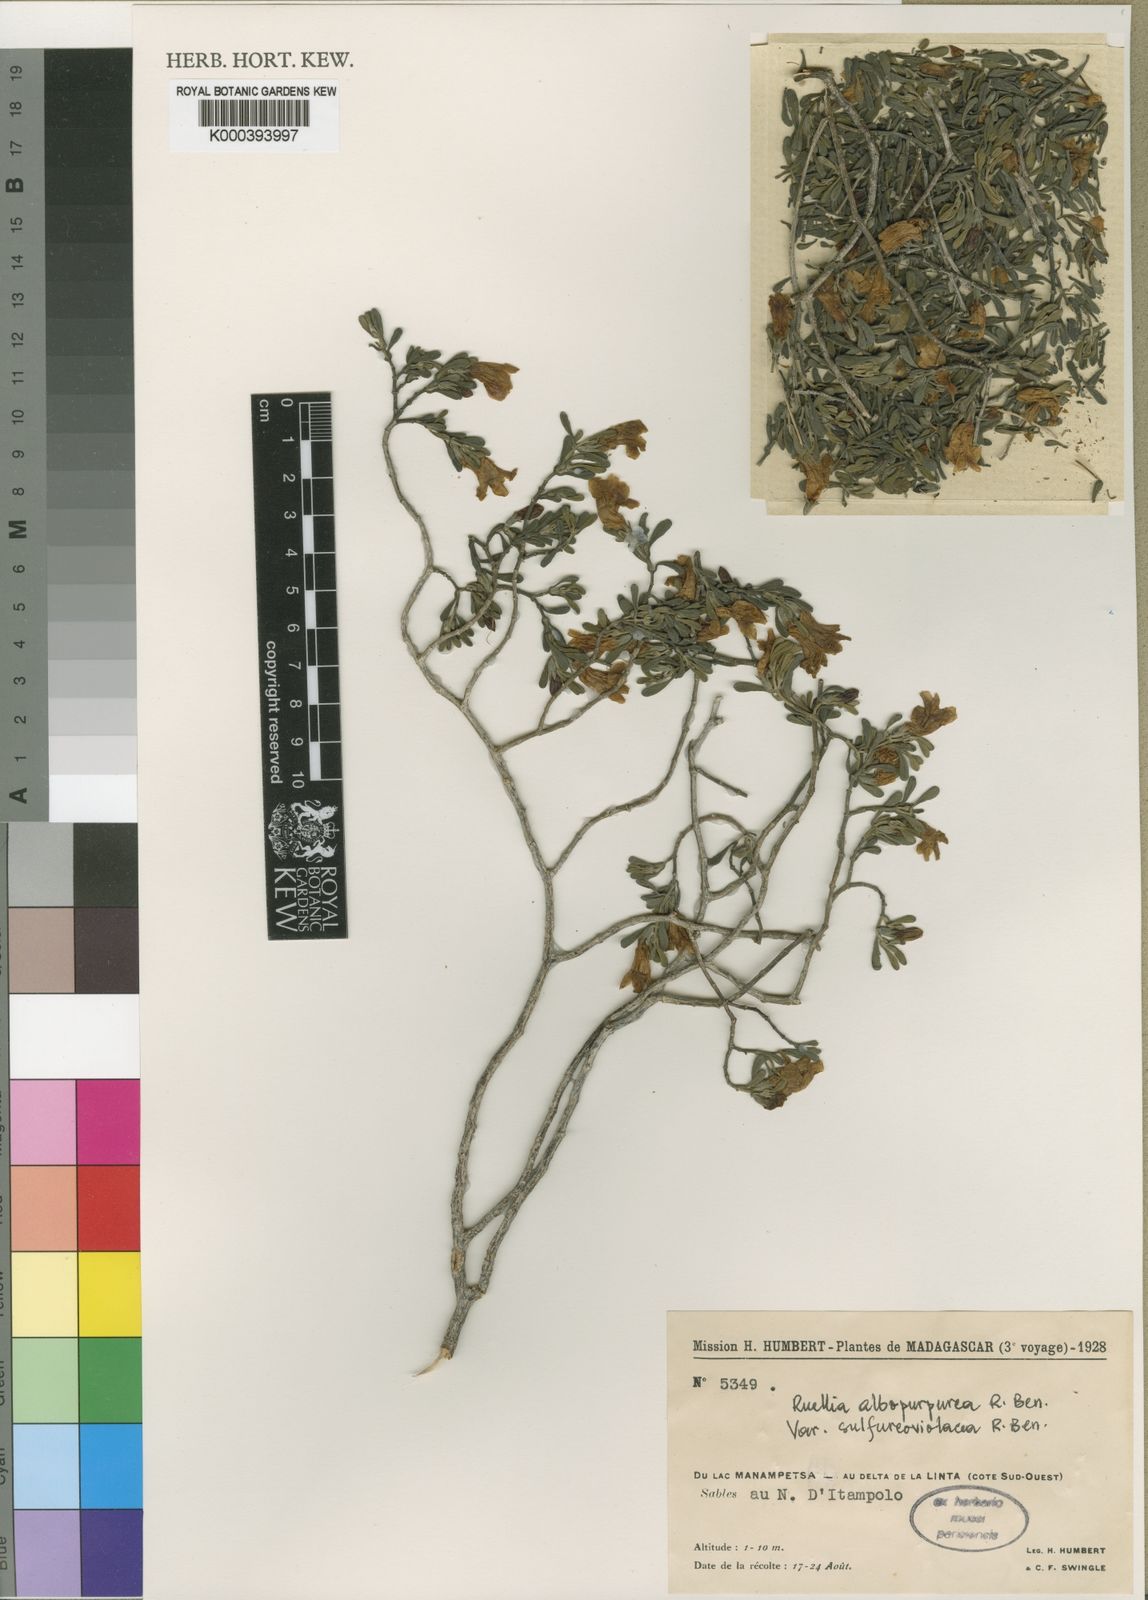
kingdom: Plantae
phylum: Tracheophyta
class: Magnoliopsida
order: Lamiales
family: Acanthaceae
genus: Ruellia
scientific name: Ruellia albopurpurea
